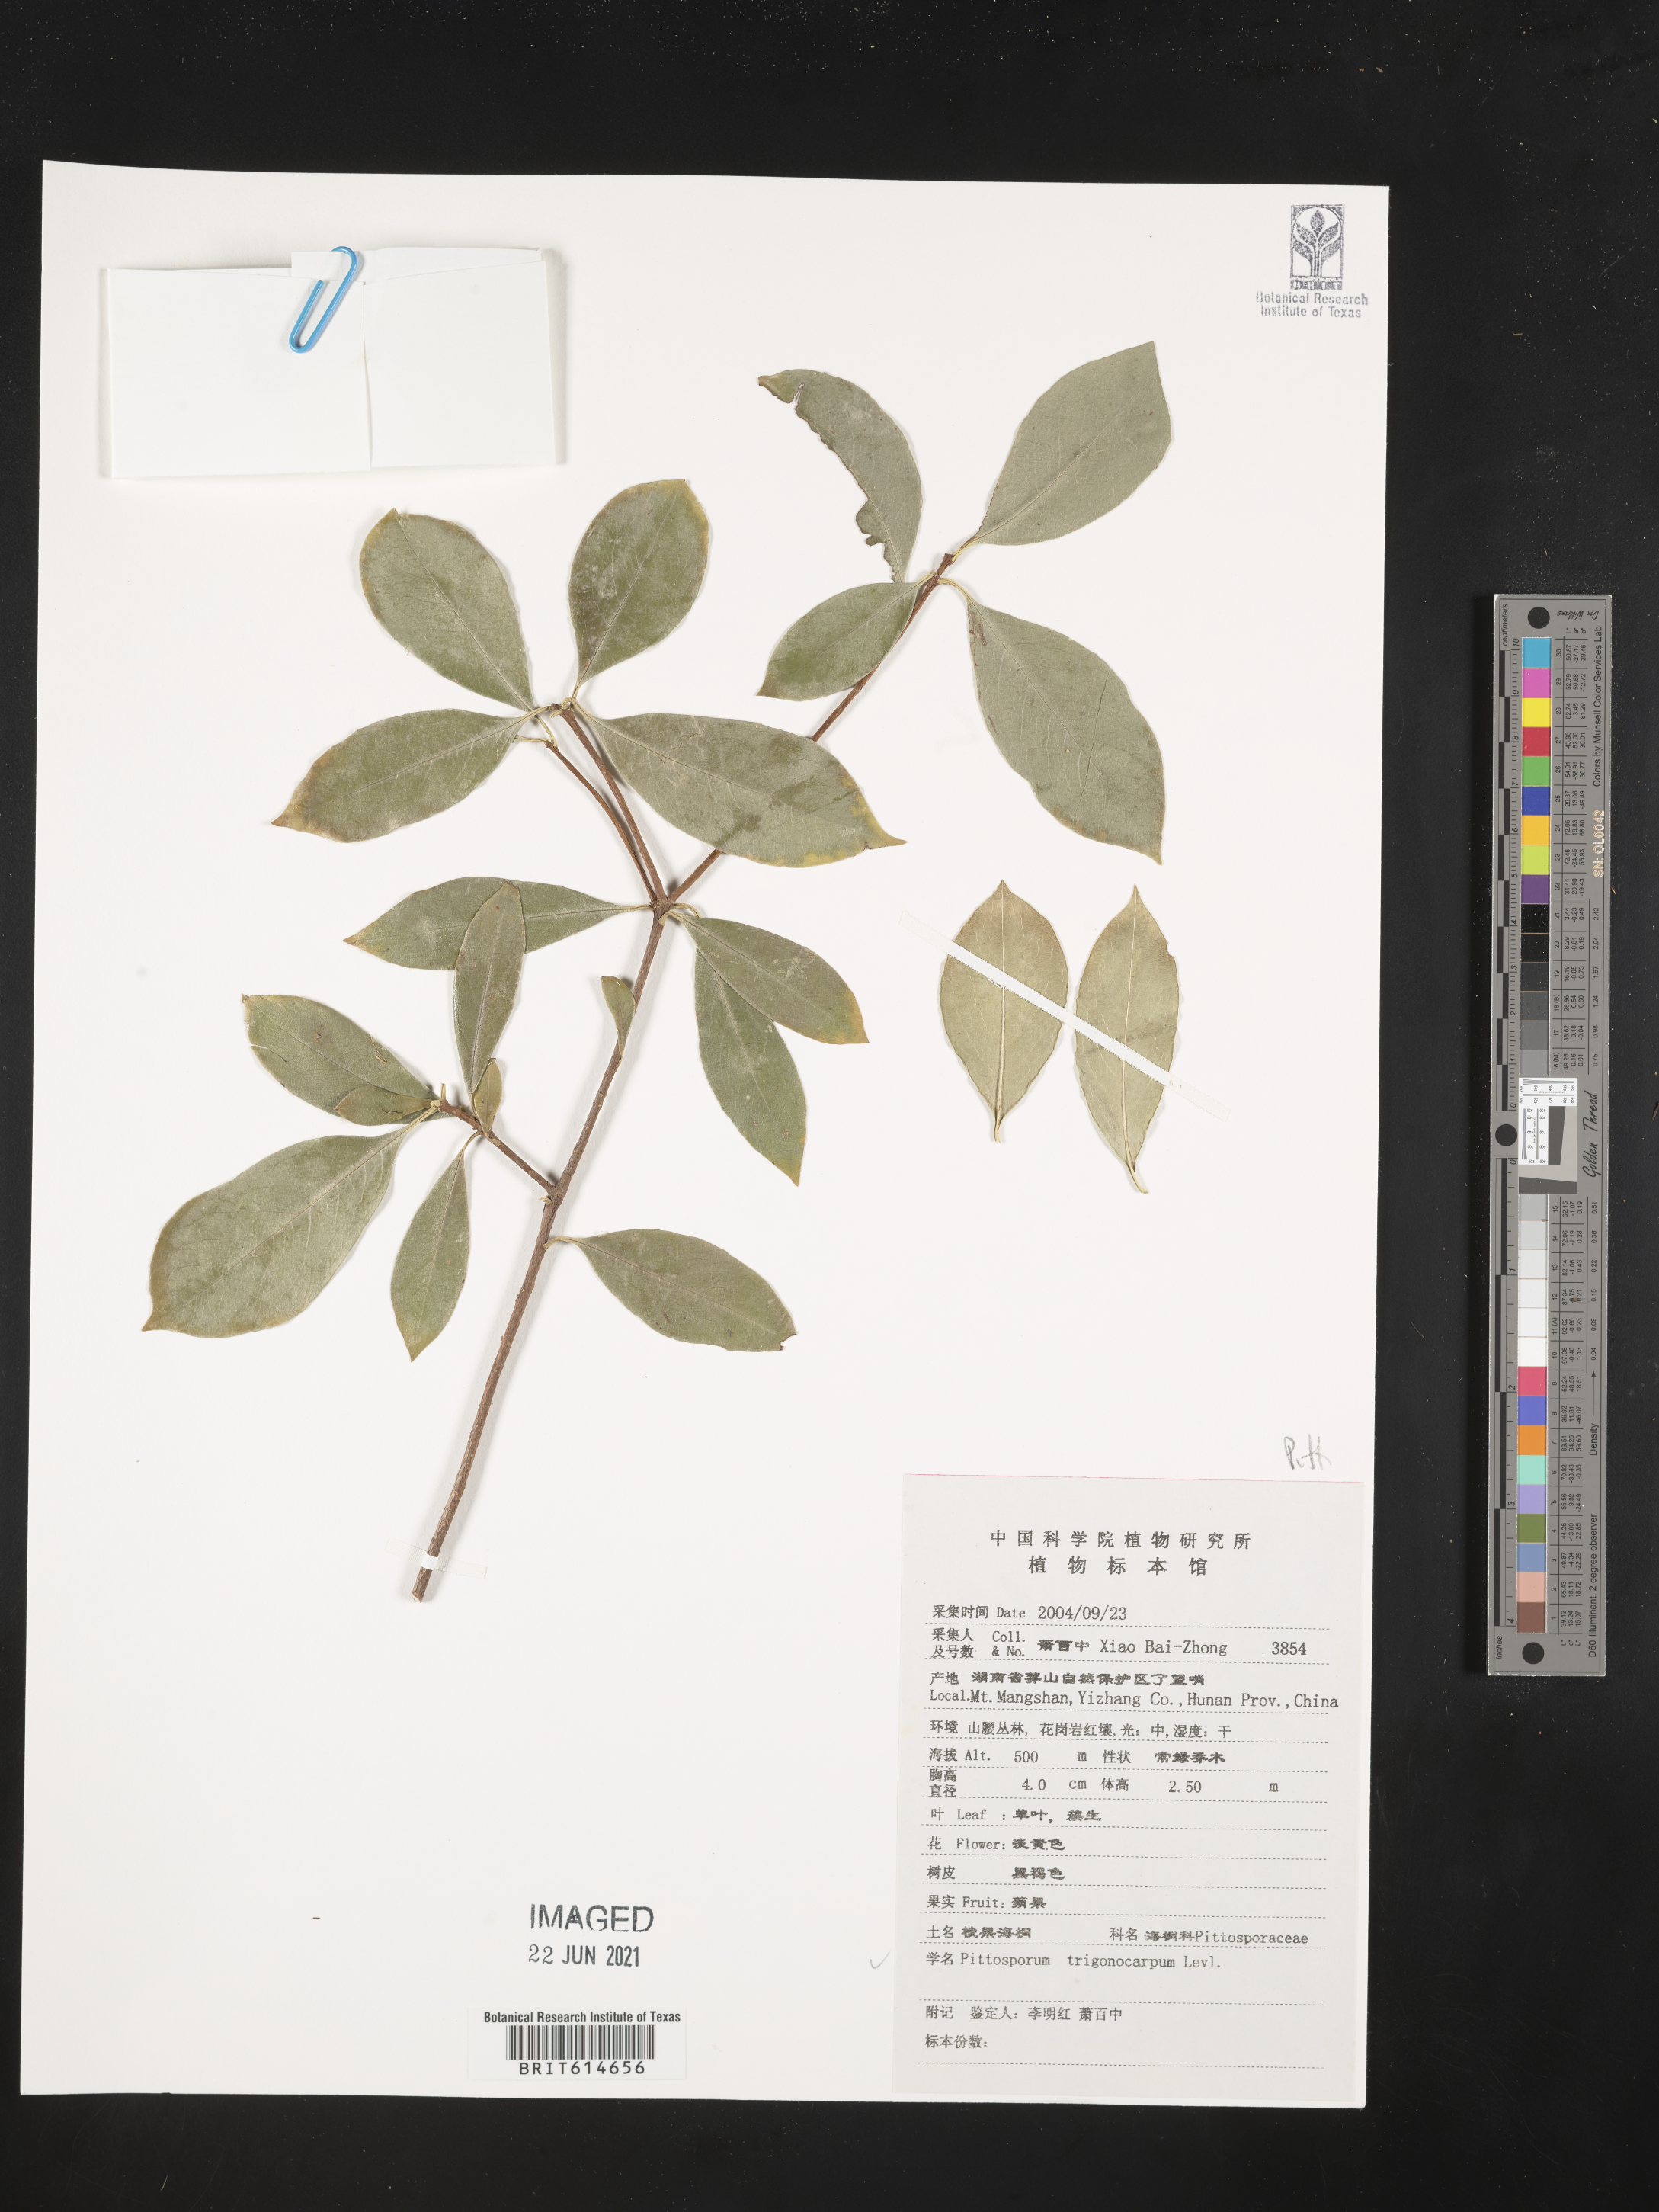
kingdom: Plantae
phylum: Tracheophyta
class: Magnoliopsida
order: Apiales
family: Pittosporaceae
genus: Pittosporum
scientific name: Pittosporum trigonocarpum
